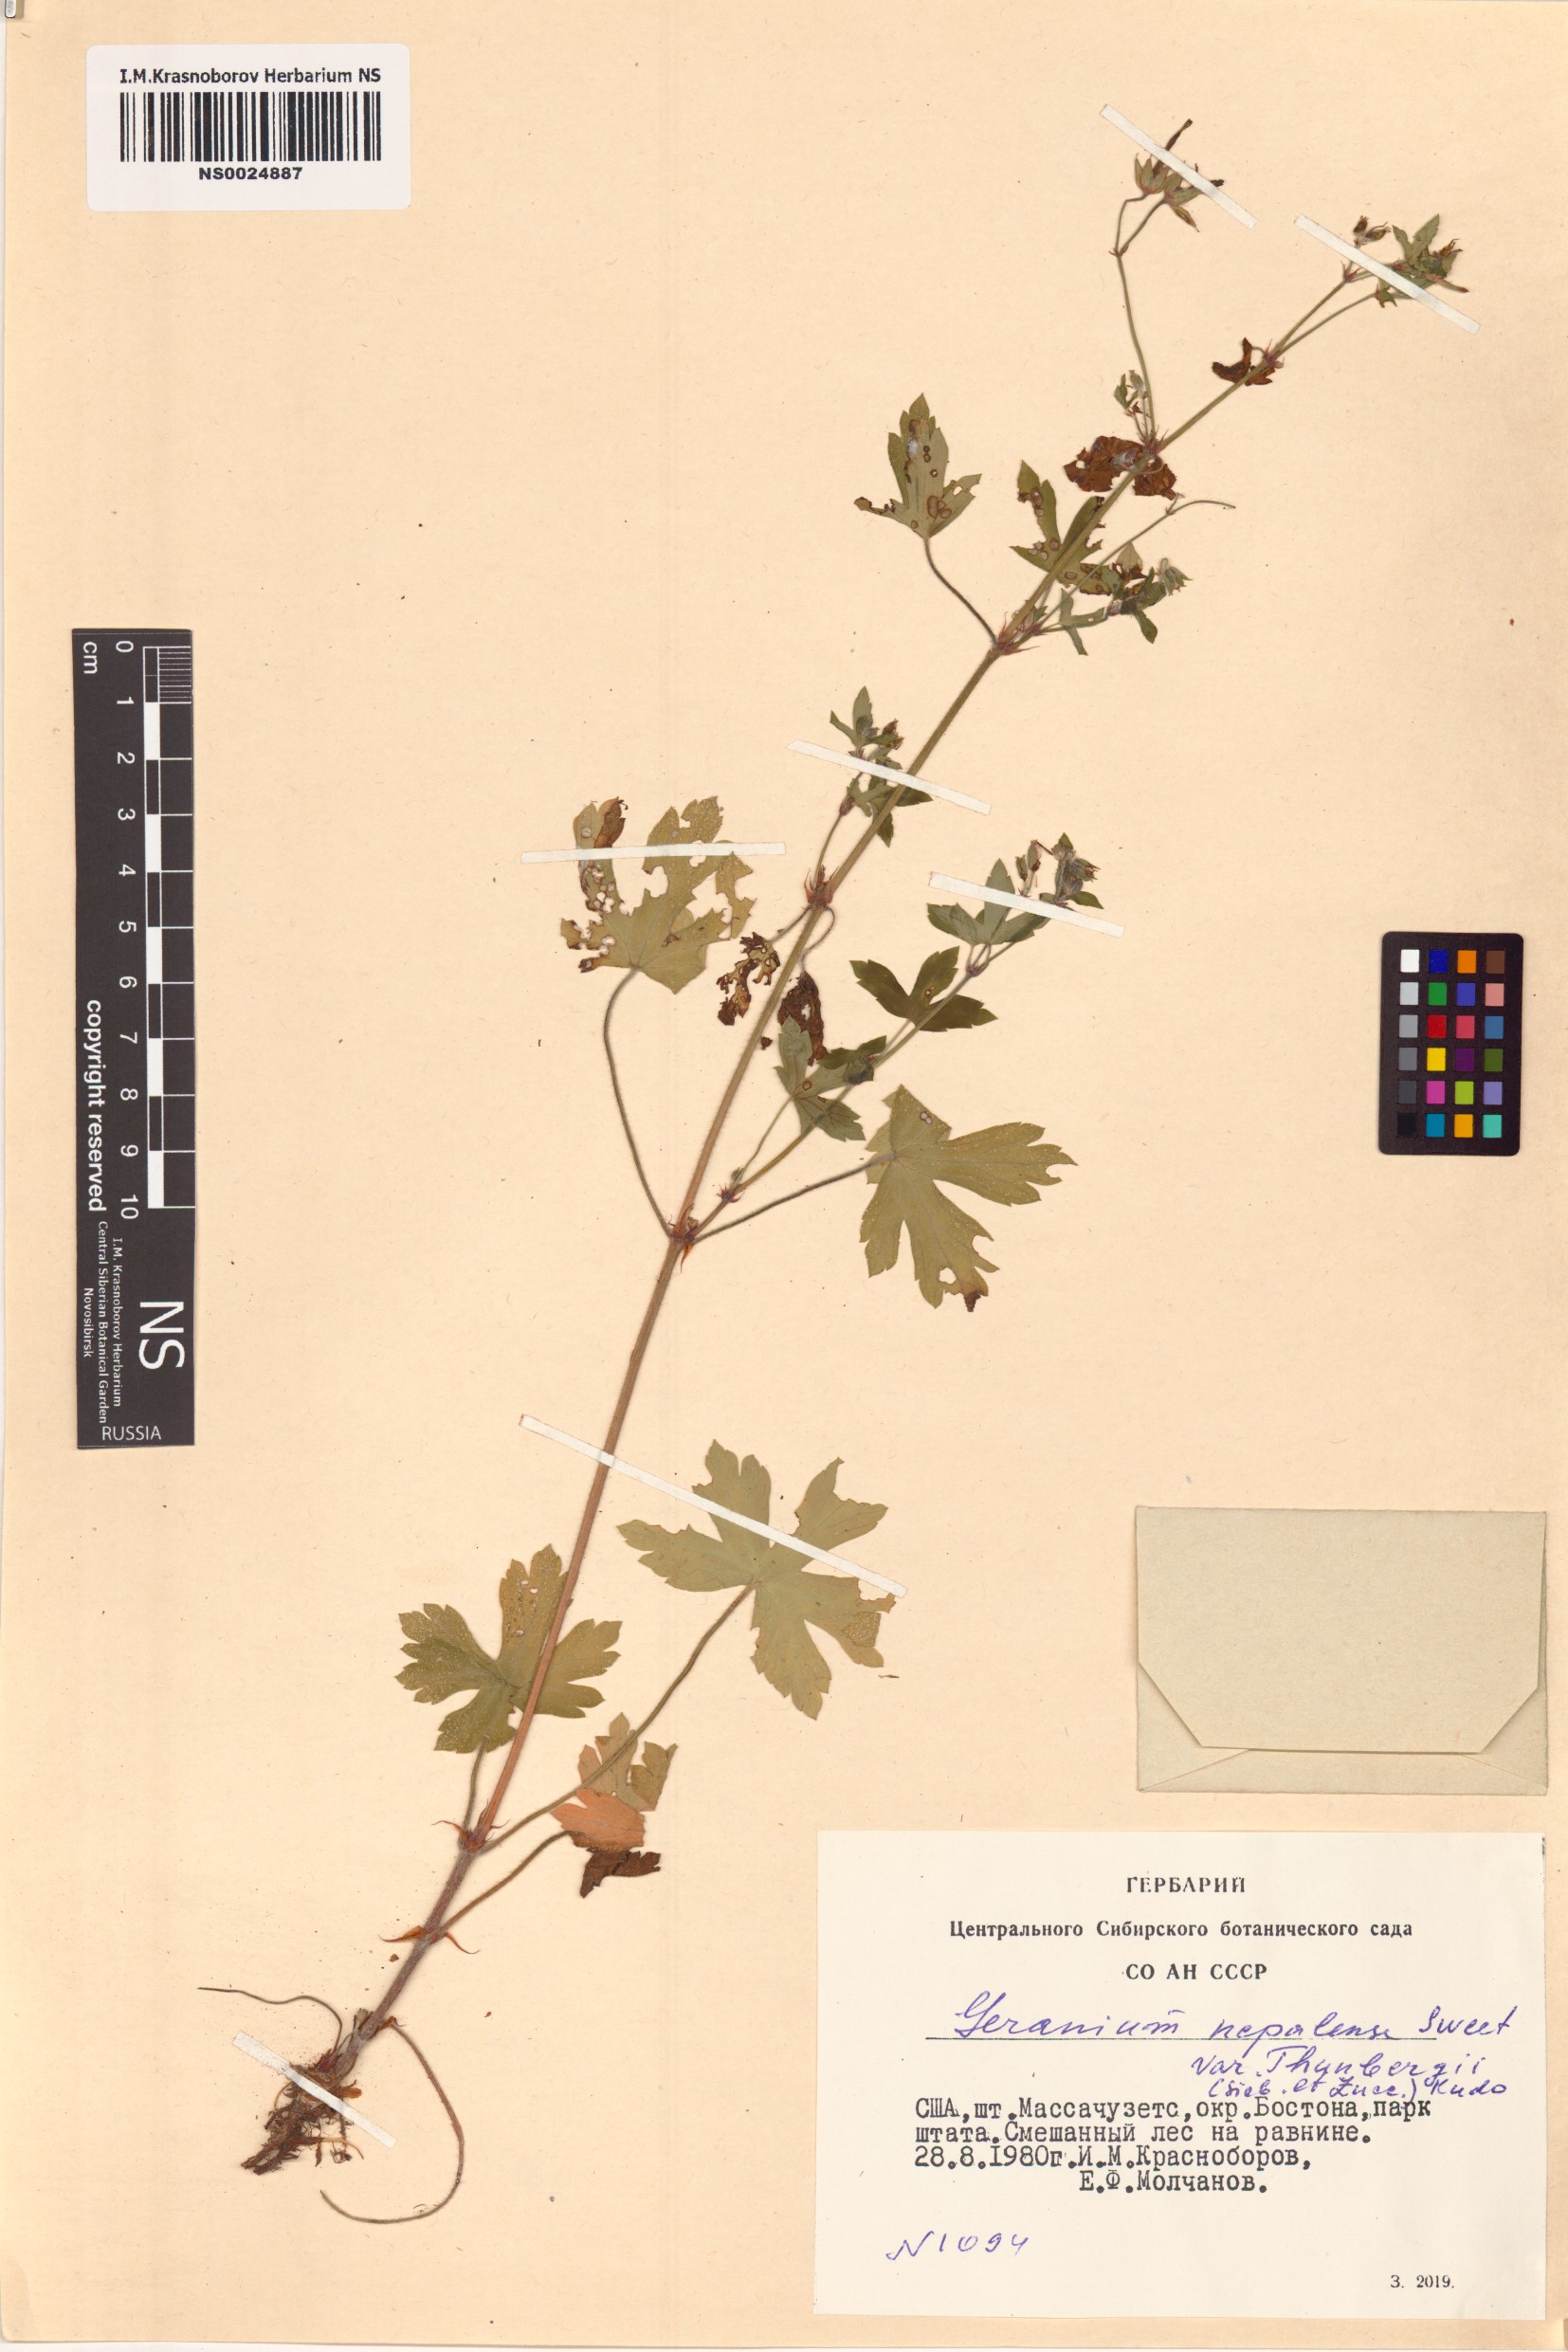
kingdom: Plantae
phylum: Tracheophyta
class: Magnoliopsida
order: Geraniales
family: Geraniaceae
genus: Geranium
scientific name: Geranium thunbergii
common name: Dewdrop crane's-bill
